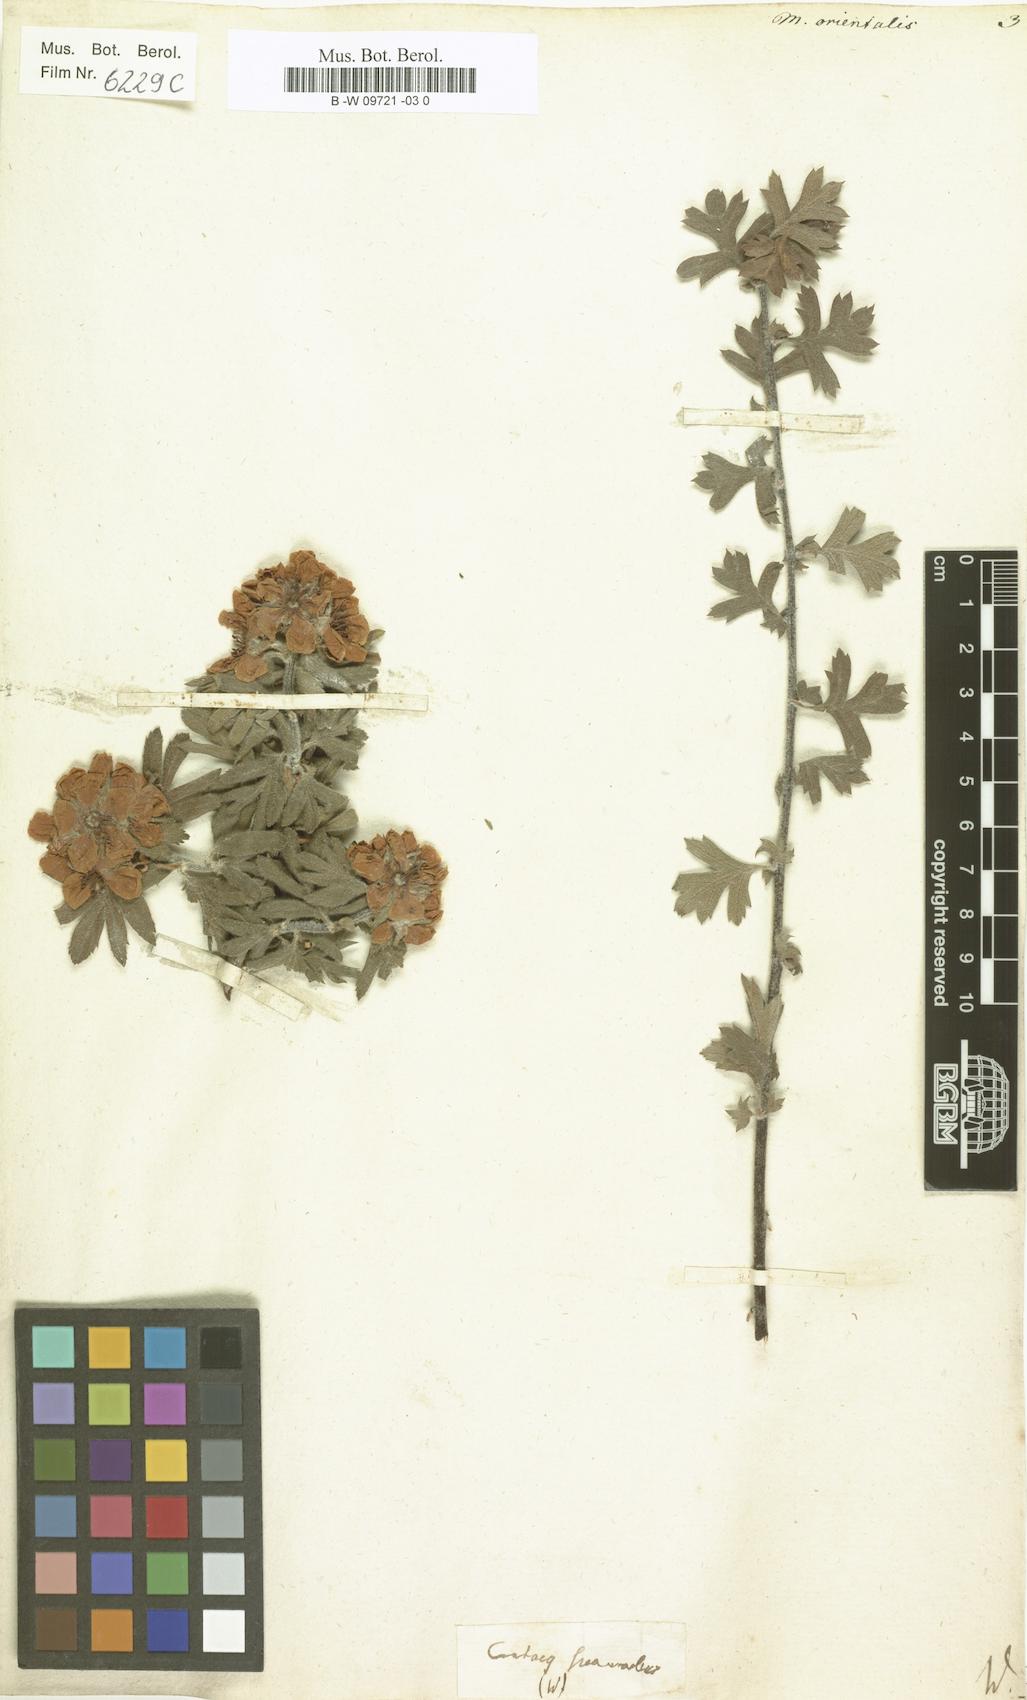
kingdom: Plantae
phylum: Tracheophyta
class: Magnoliopsida
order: Rosales
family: Rosaceae
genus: Cotoneaster
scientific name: Cotoneaster tomentosus
